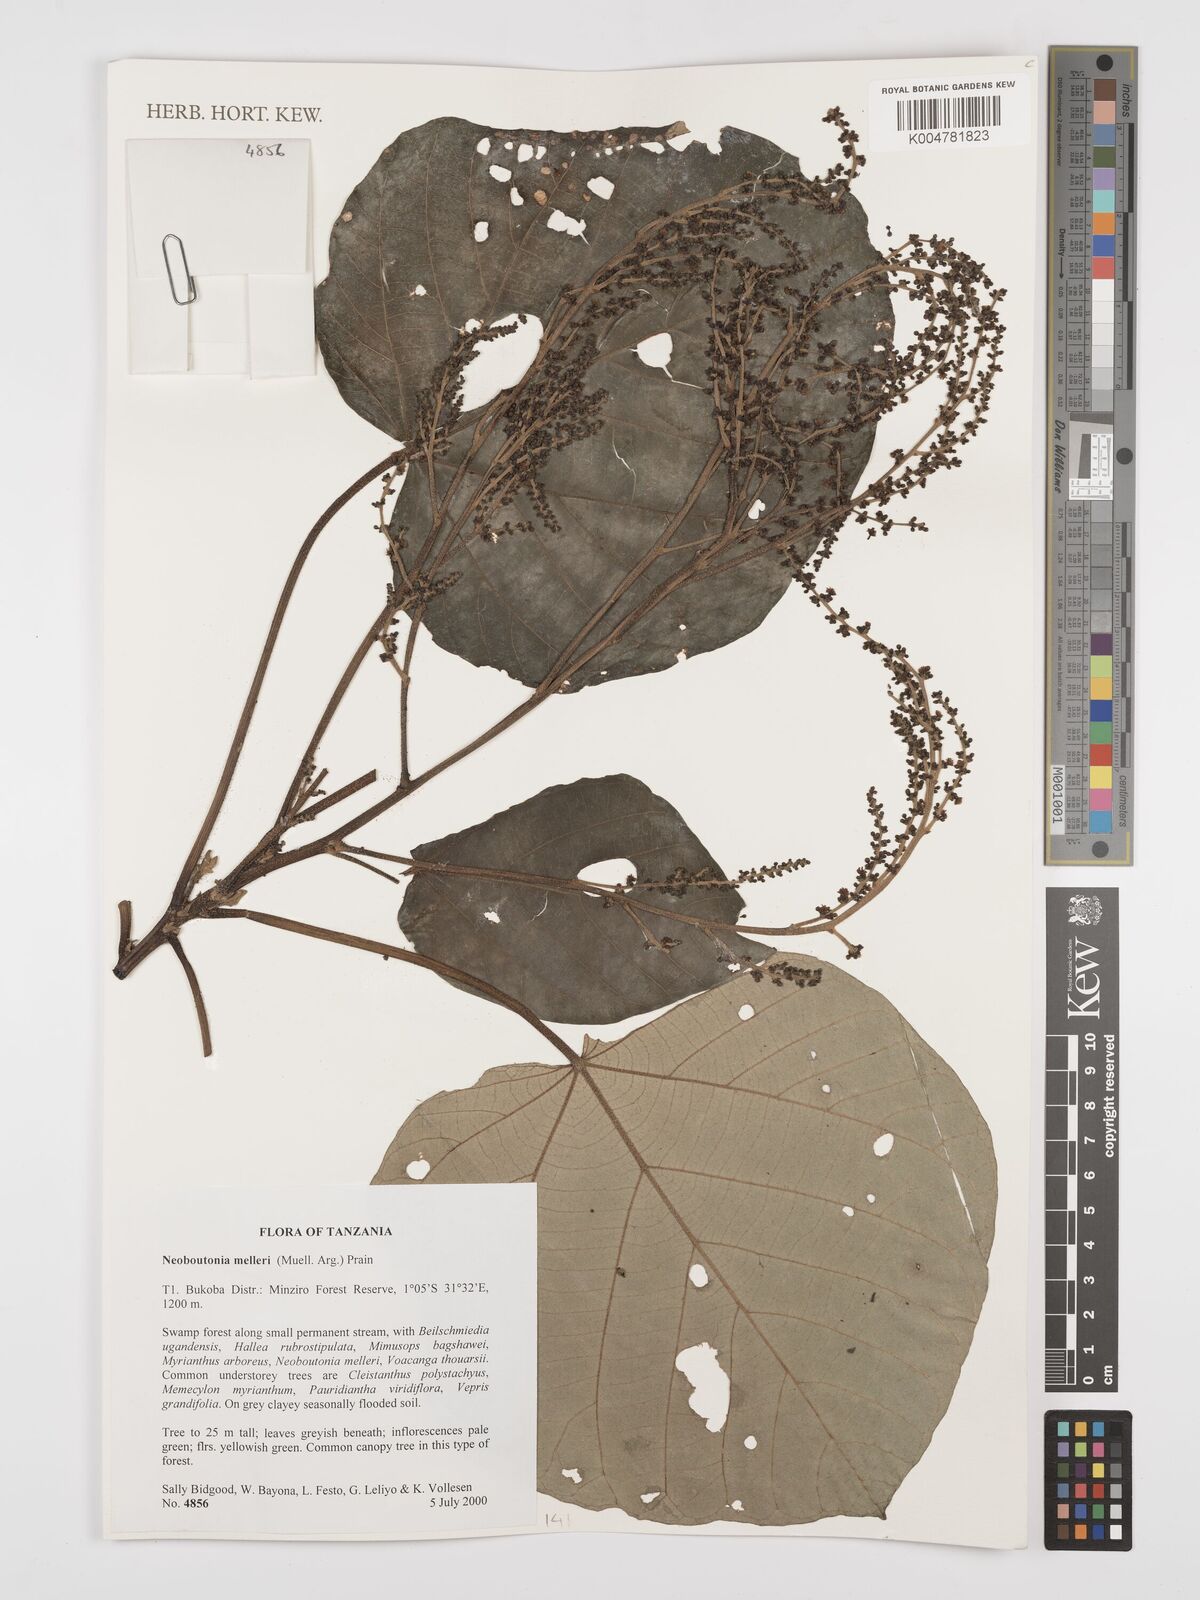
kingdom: Plantae
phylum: Tracheophyta
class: Magnoliopsida
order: Malpighiales
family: Euphorbiaceae
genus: Neoboutonia
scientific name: Neoboutonia melleri
